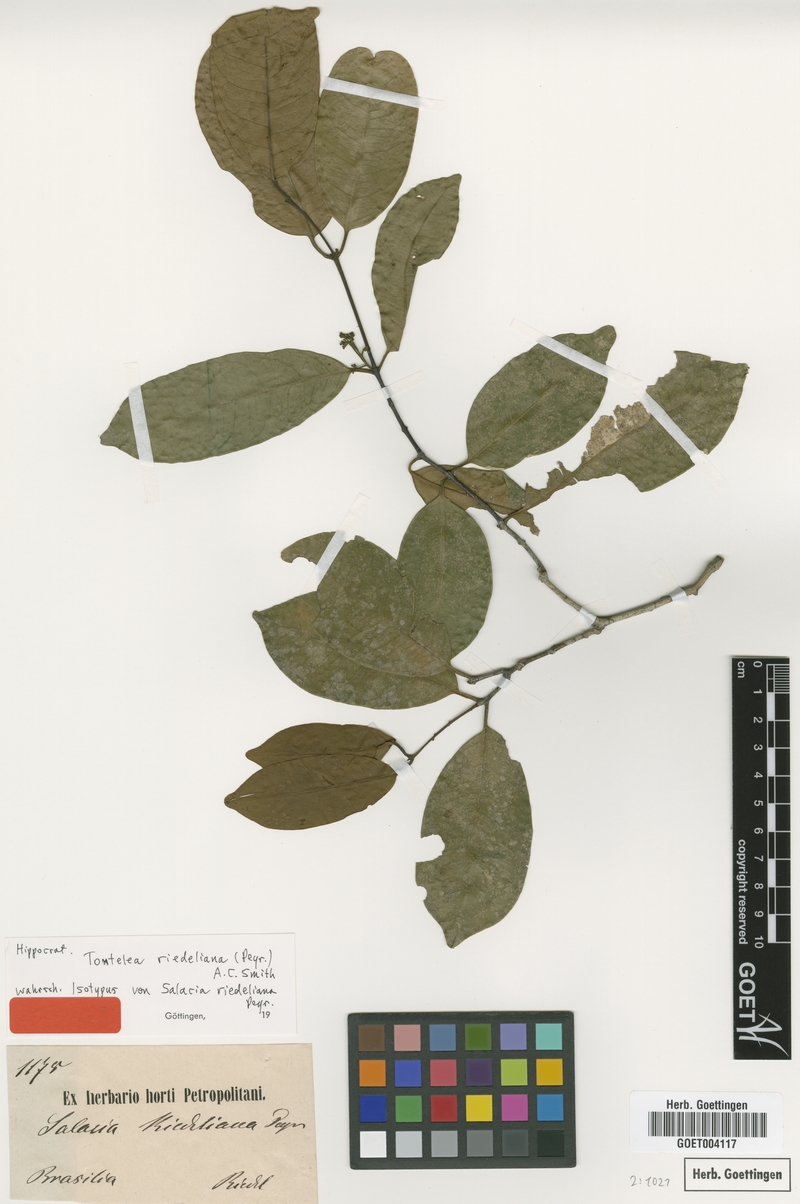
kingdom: Plantae
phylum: Tracheophyta
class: Magnoliopsida
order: Celastrales
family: Celastraceae
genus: Tontelea
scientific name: Tontelea miersii
